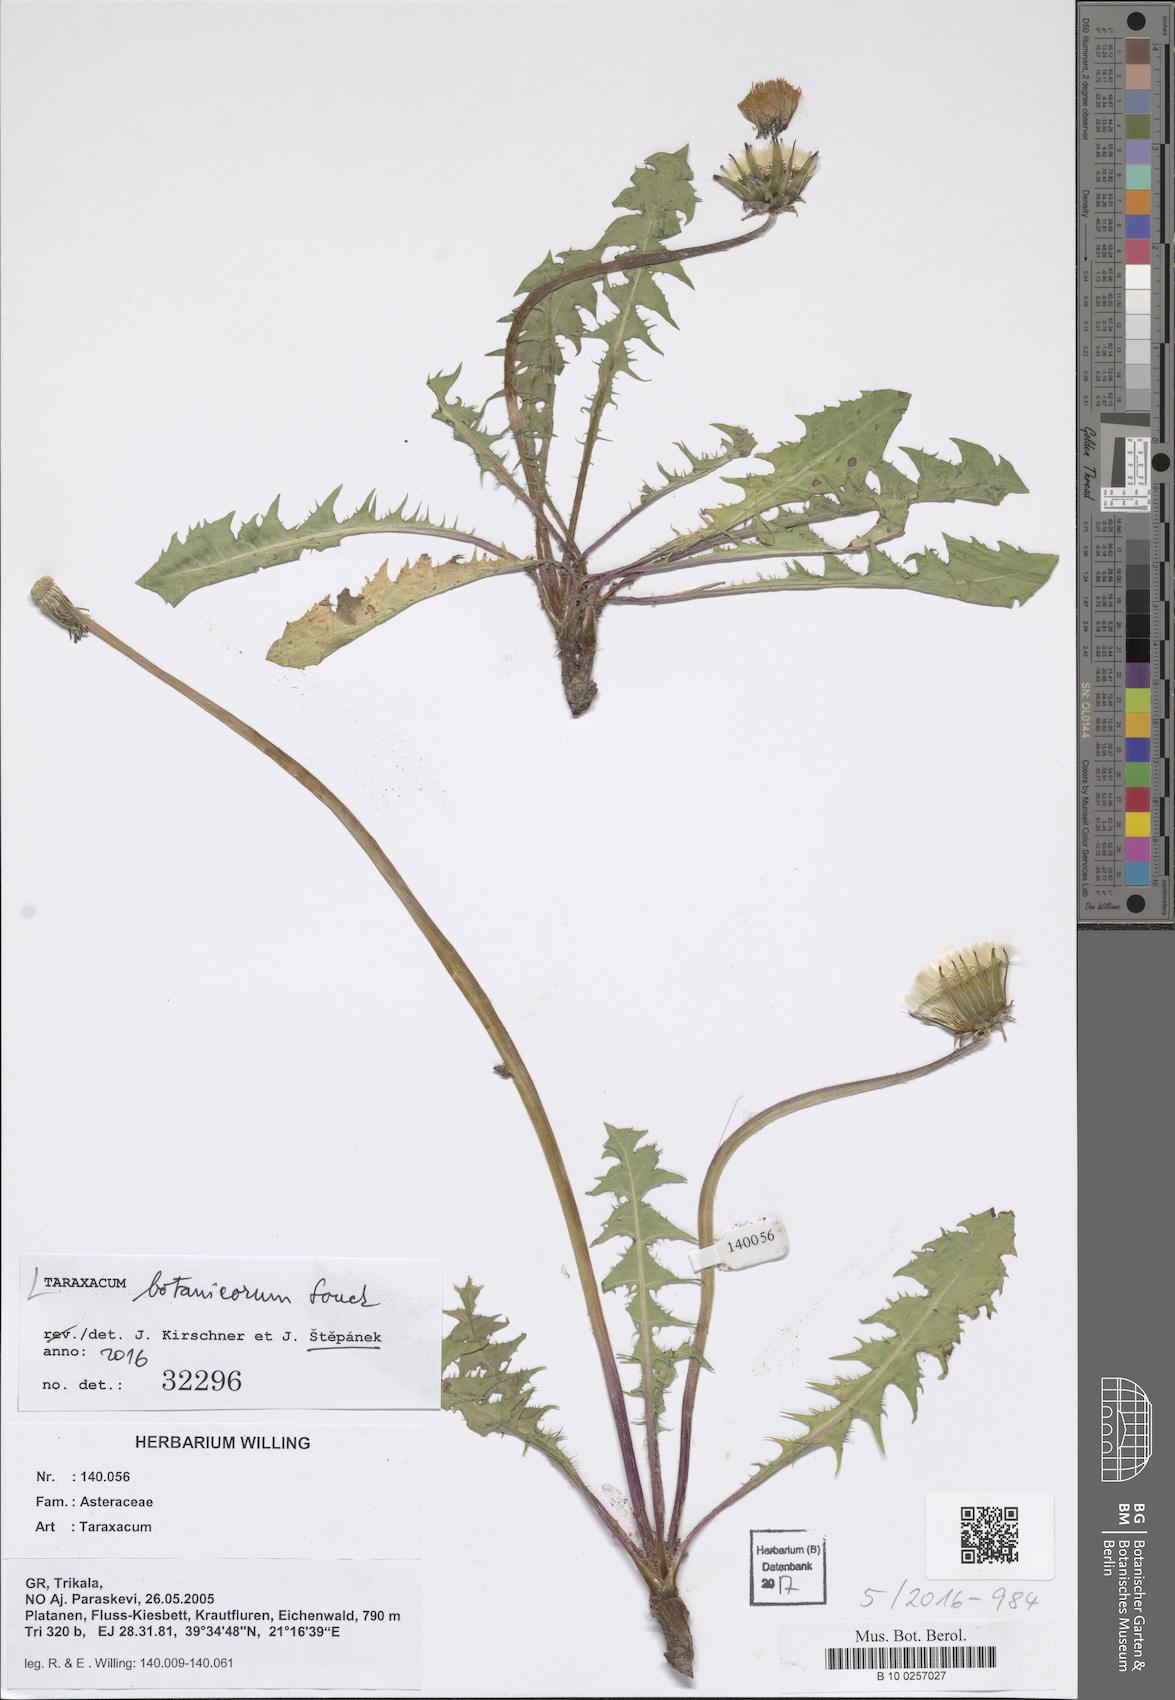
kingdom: Plantae
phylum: Tracheophyta
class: Magnoliopsida
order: Asterales
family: Asteraceae
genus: Taraxacum
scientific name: Taraxacum botanicorum
